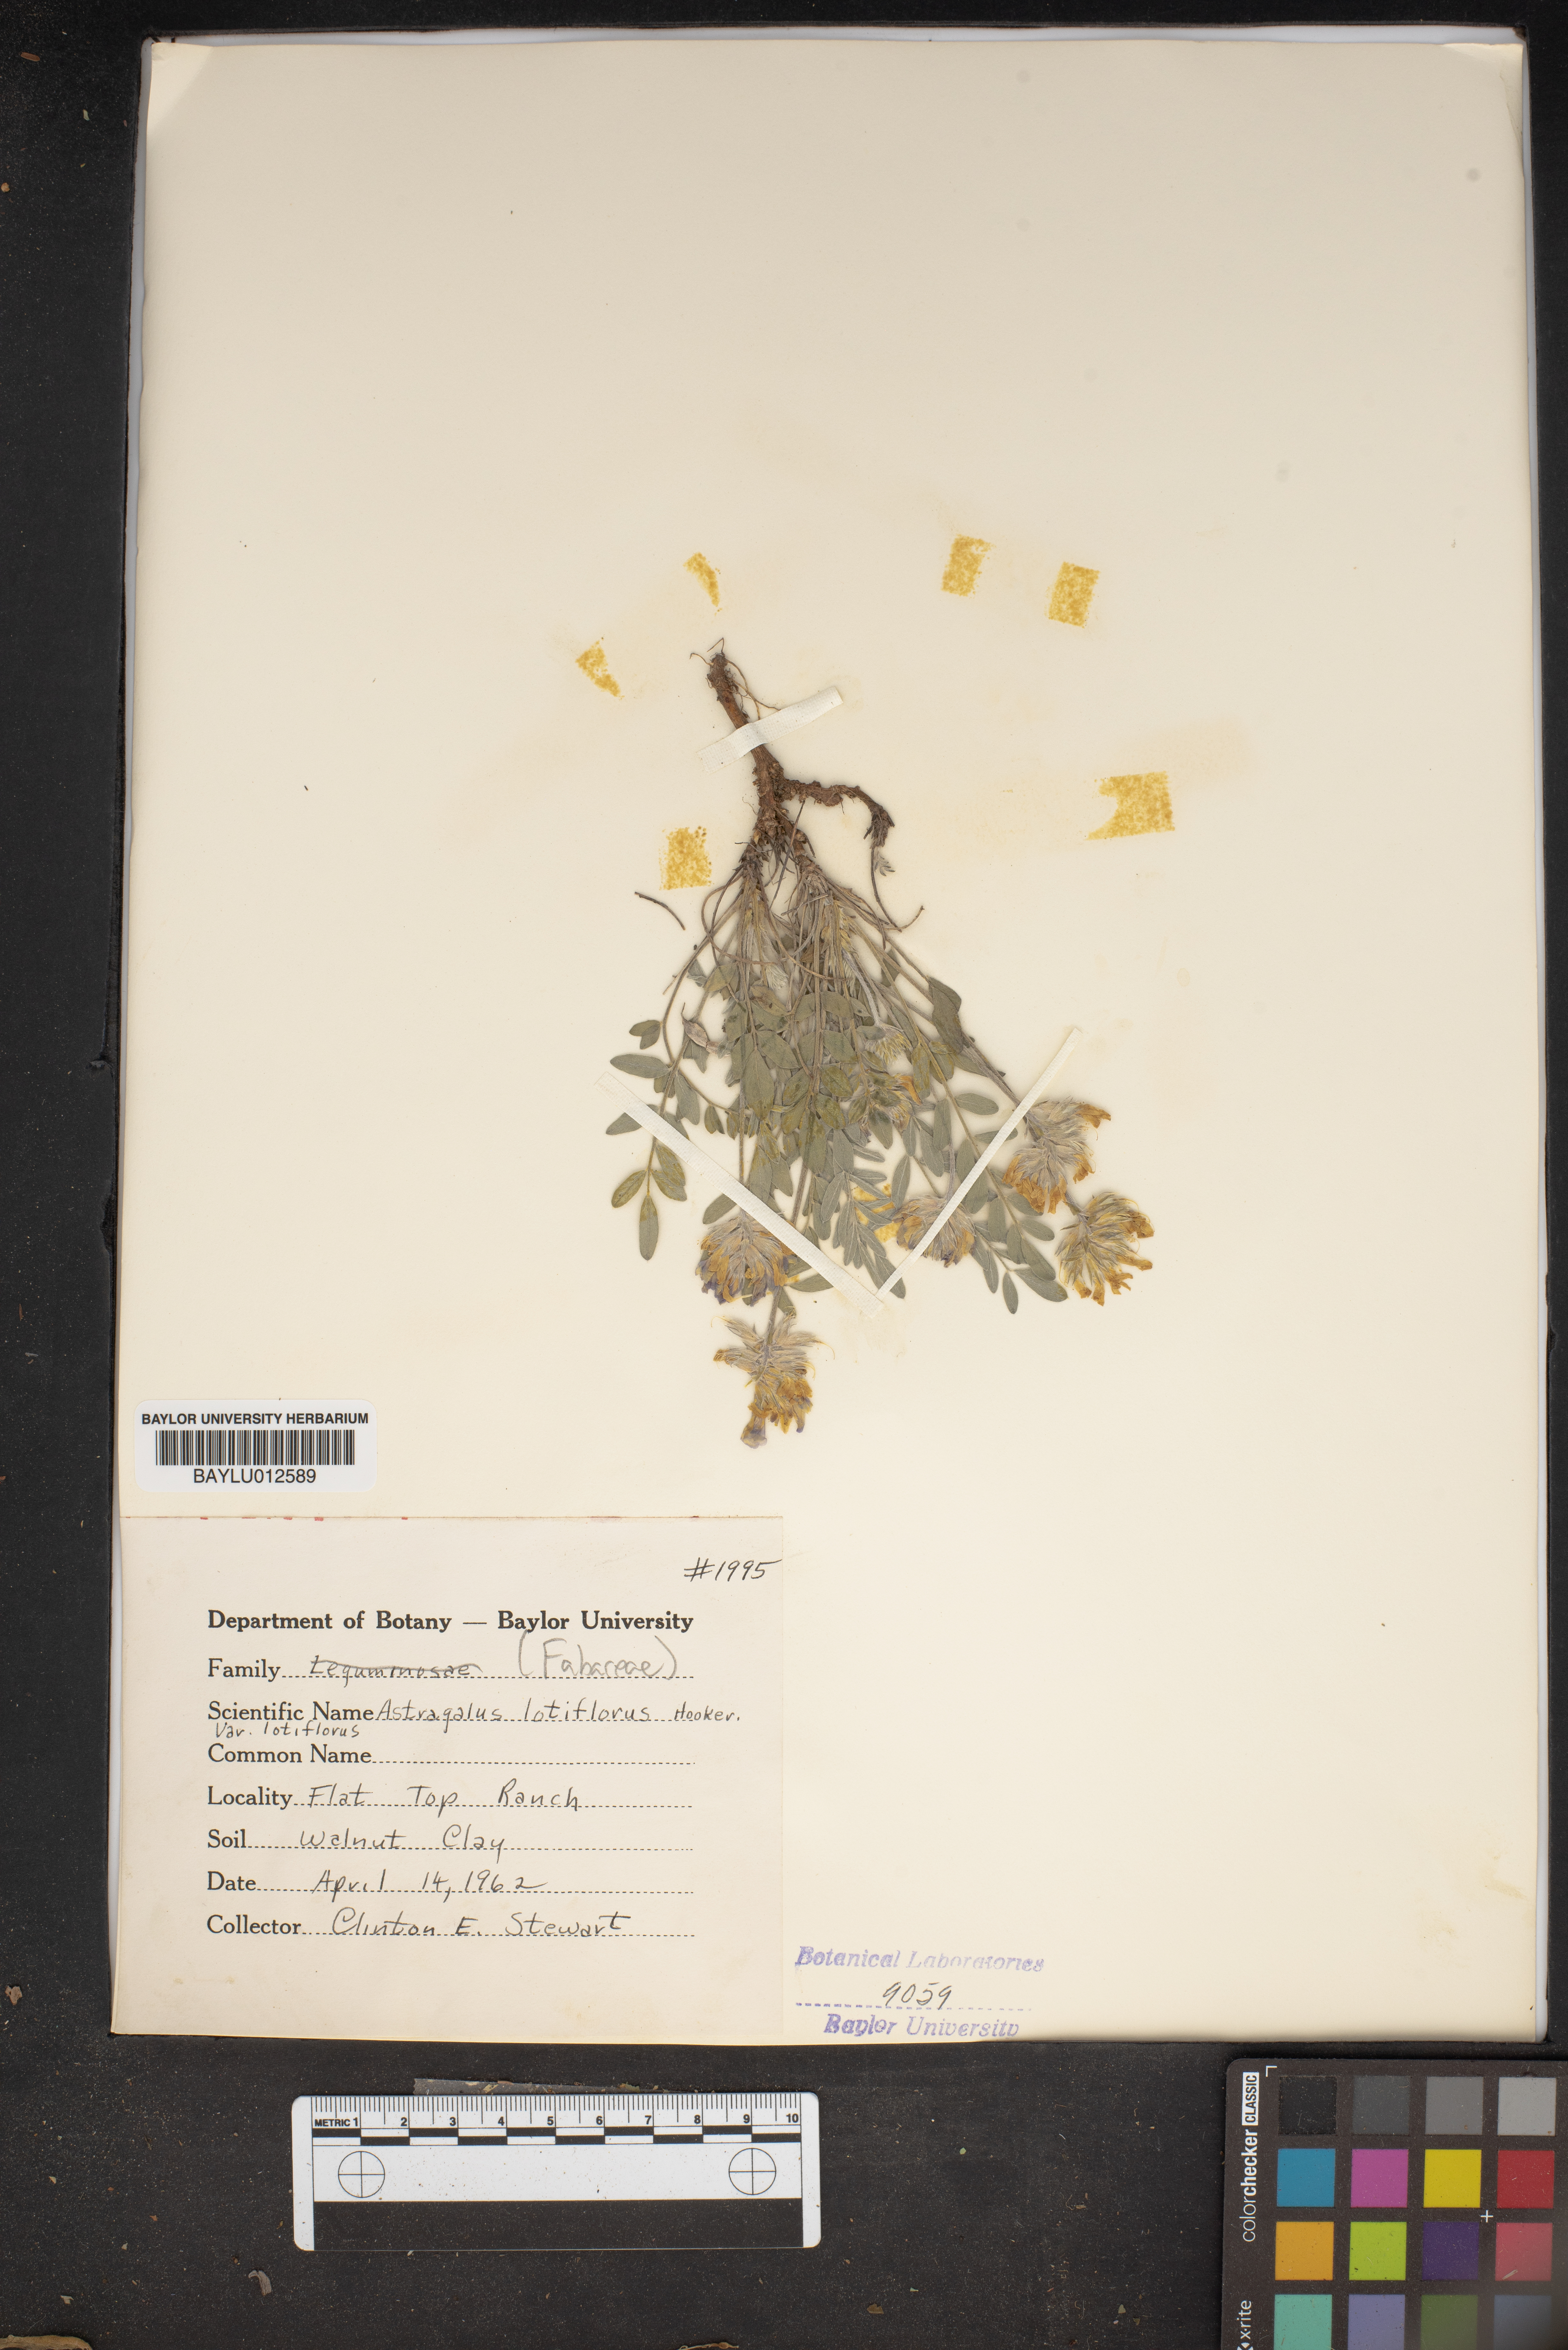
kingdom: Plantae
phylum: Tracheophyta
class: Magnoliopsida
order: Fabales
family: Fabaceae
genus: Astragalus
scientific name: Astragalus lotiflorus
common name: Lotus milk-vetch
